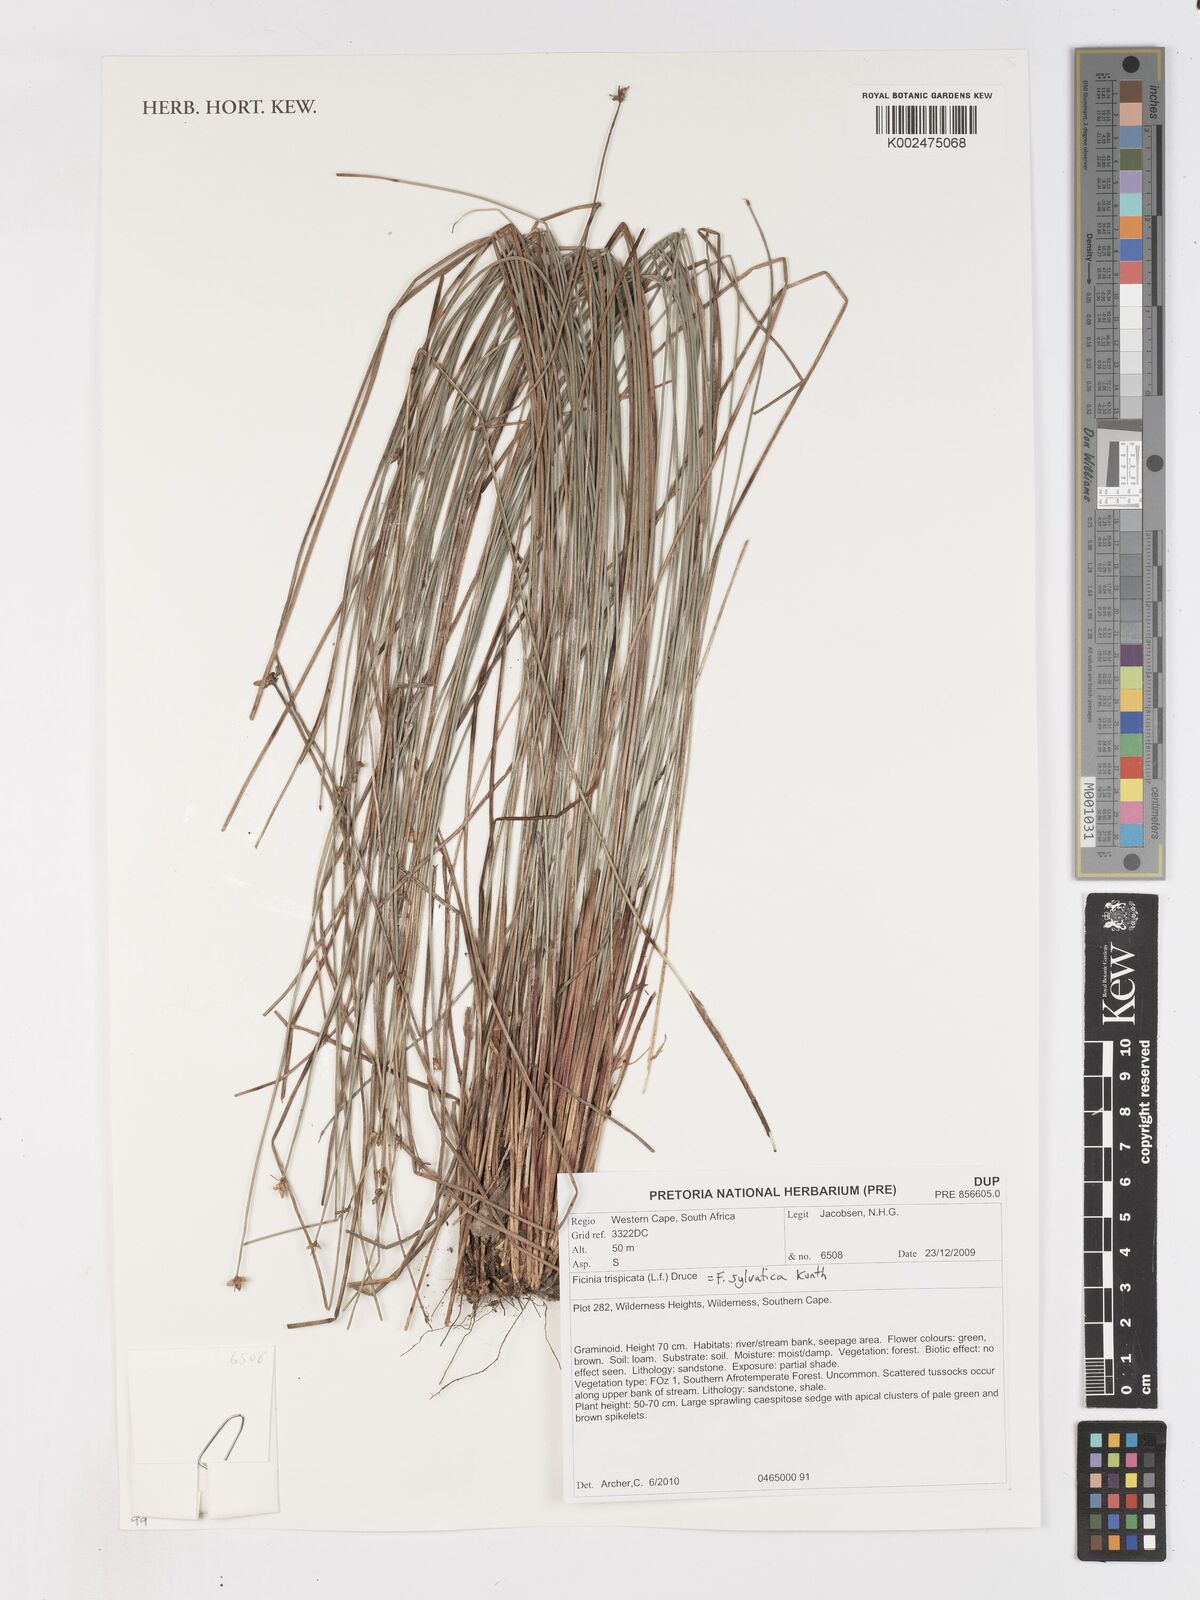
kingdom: Plantae
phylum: Tracheophyta
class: Liliopsida
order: Poales
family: Cyperaceae
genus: Ficinia
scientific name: Ficinia sylvatica
